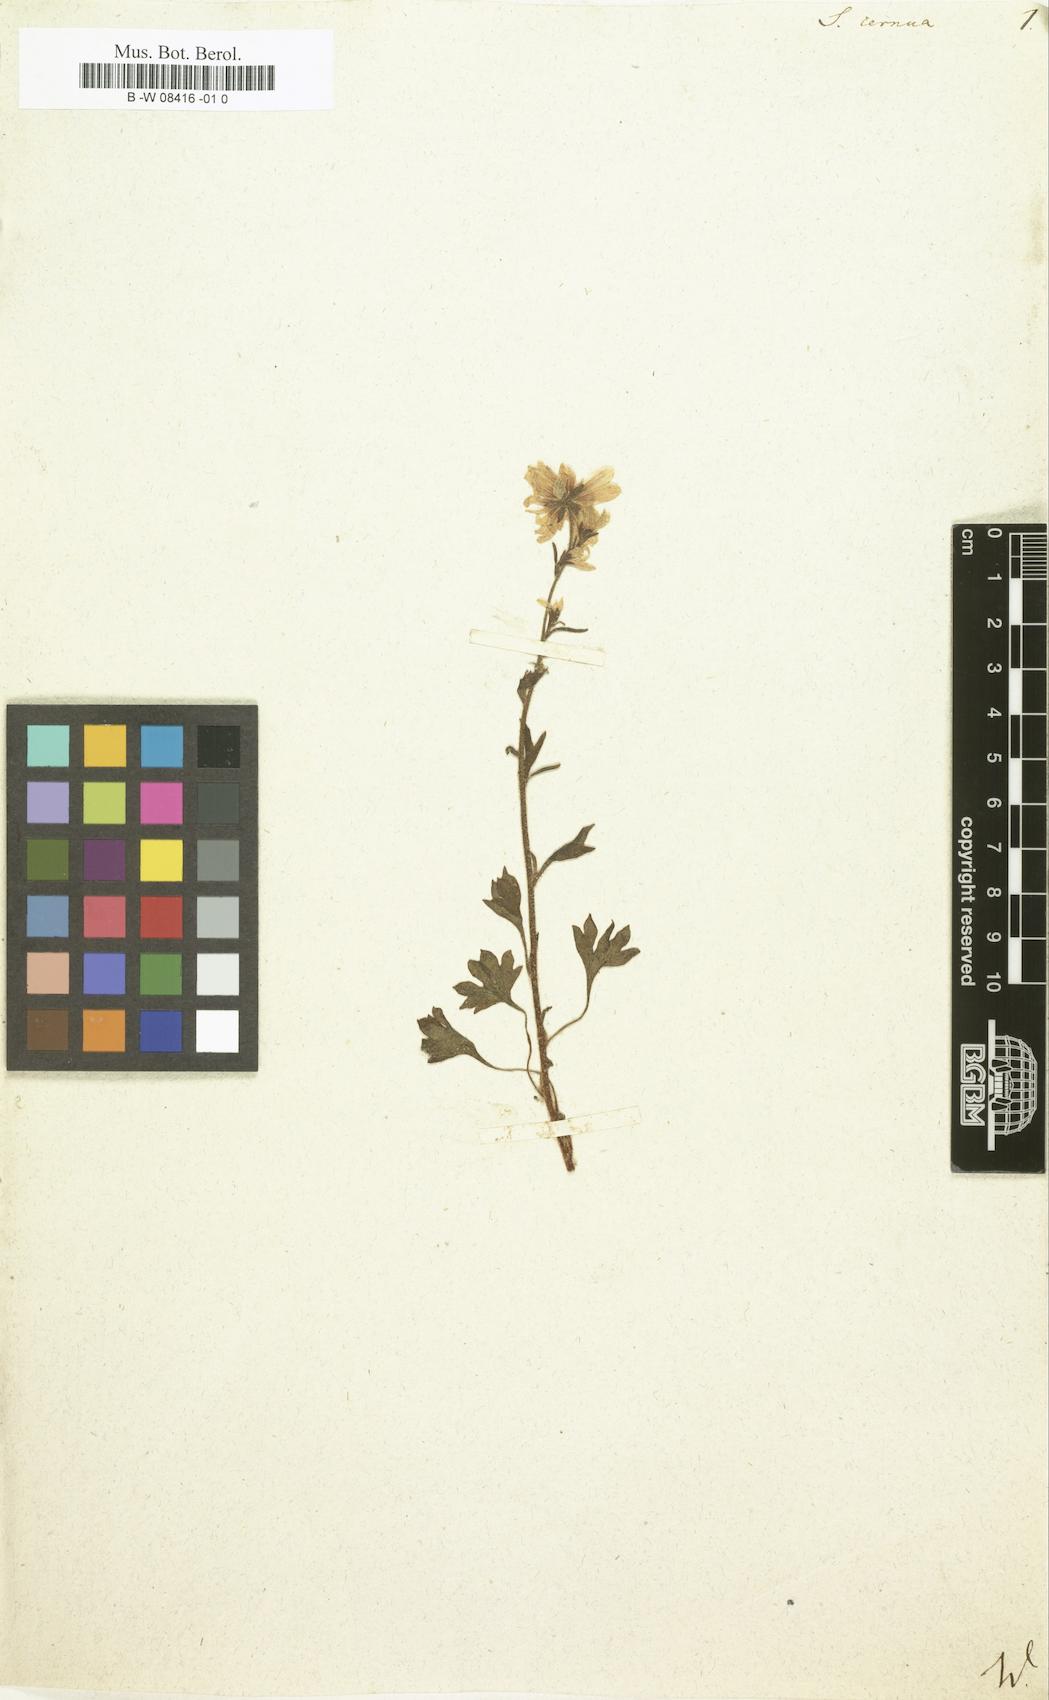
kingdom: Plantae
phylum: Tracheophyta
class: Magnoliopsida
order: Saxifragales
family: Saxifragaceae
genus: Saxifraga
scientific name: Saxifraga cernua
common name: Drooping saxifrage
